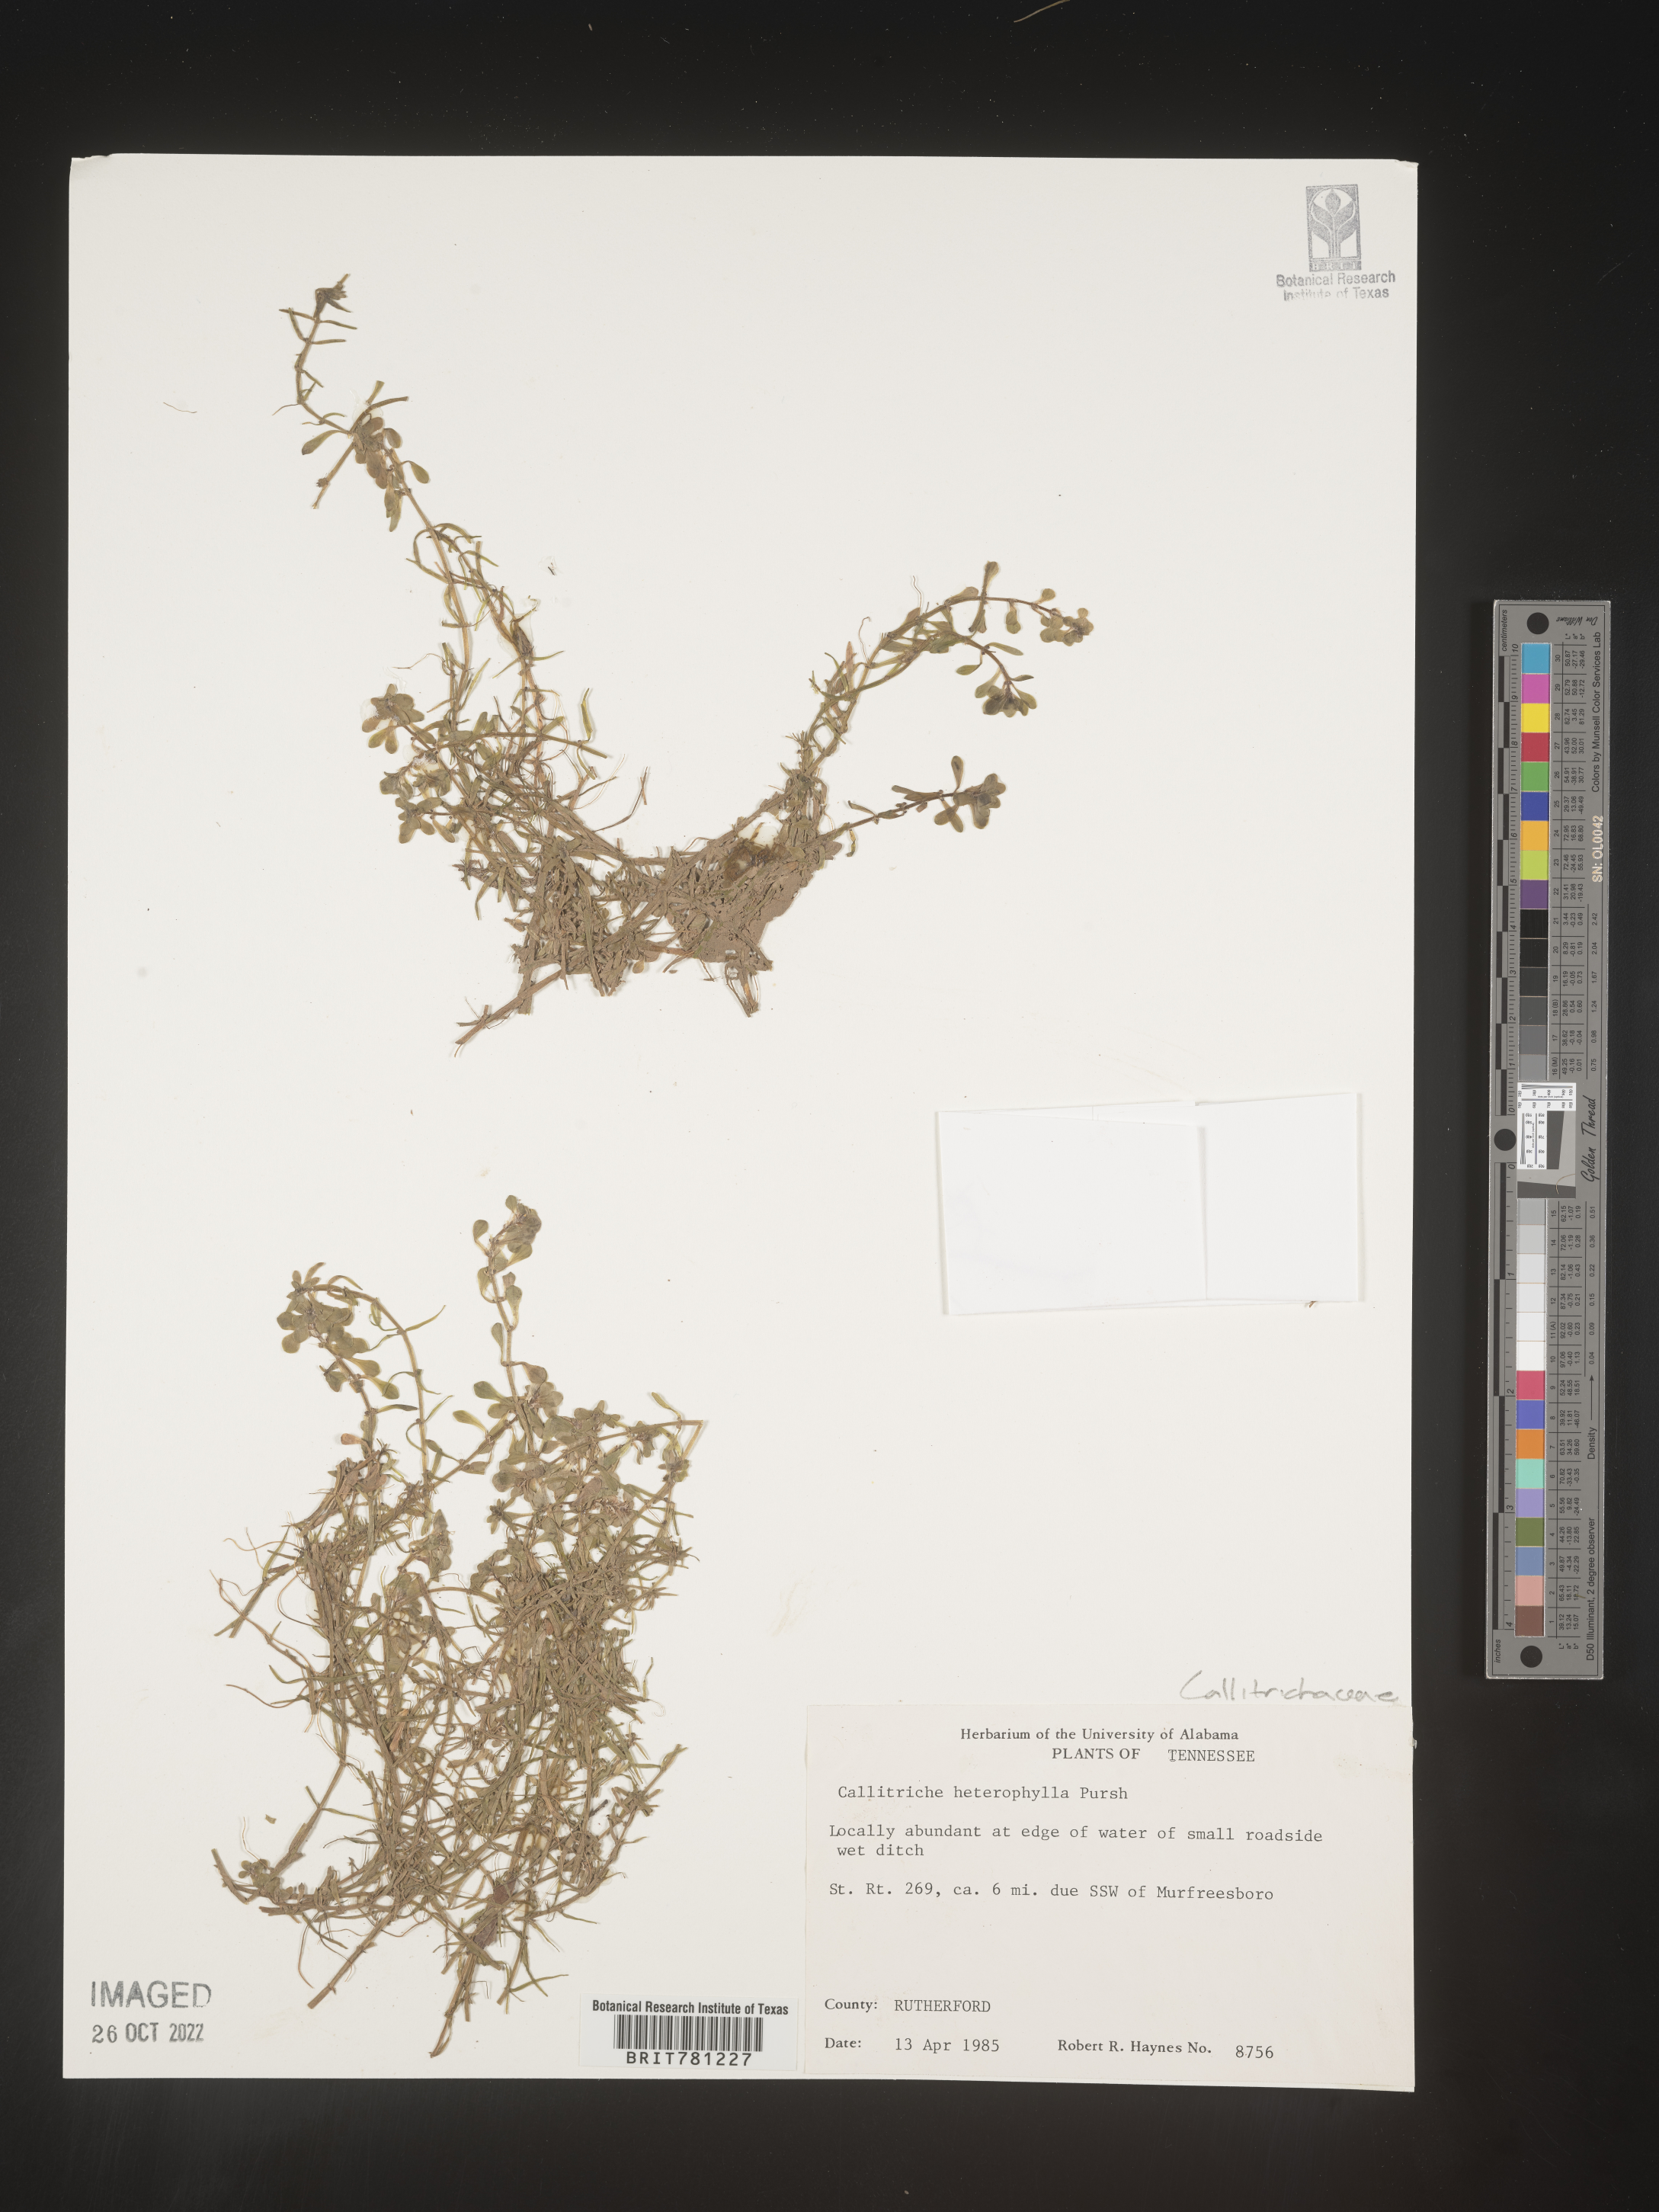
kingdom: Plantae
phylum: Tracheophyta
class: Magnoliopsida
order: Lamiales
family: Plantaginaceae
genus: Callitriche
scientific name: Callitriche heterophylla
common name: Two-headed water-starwort
